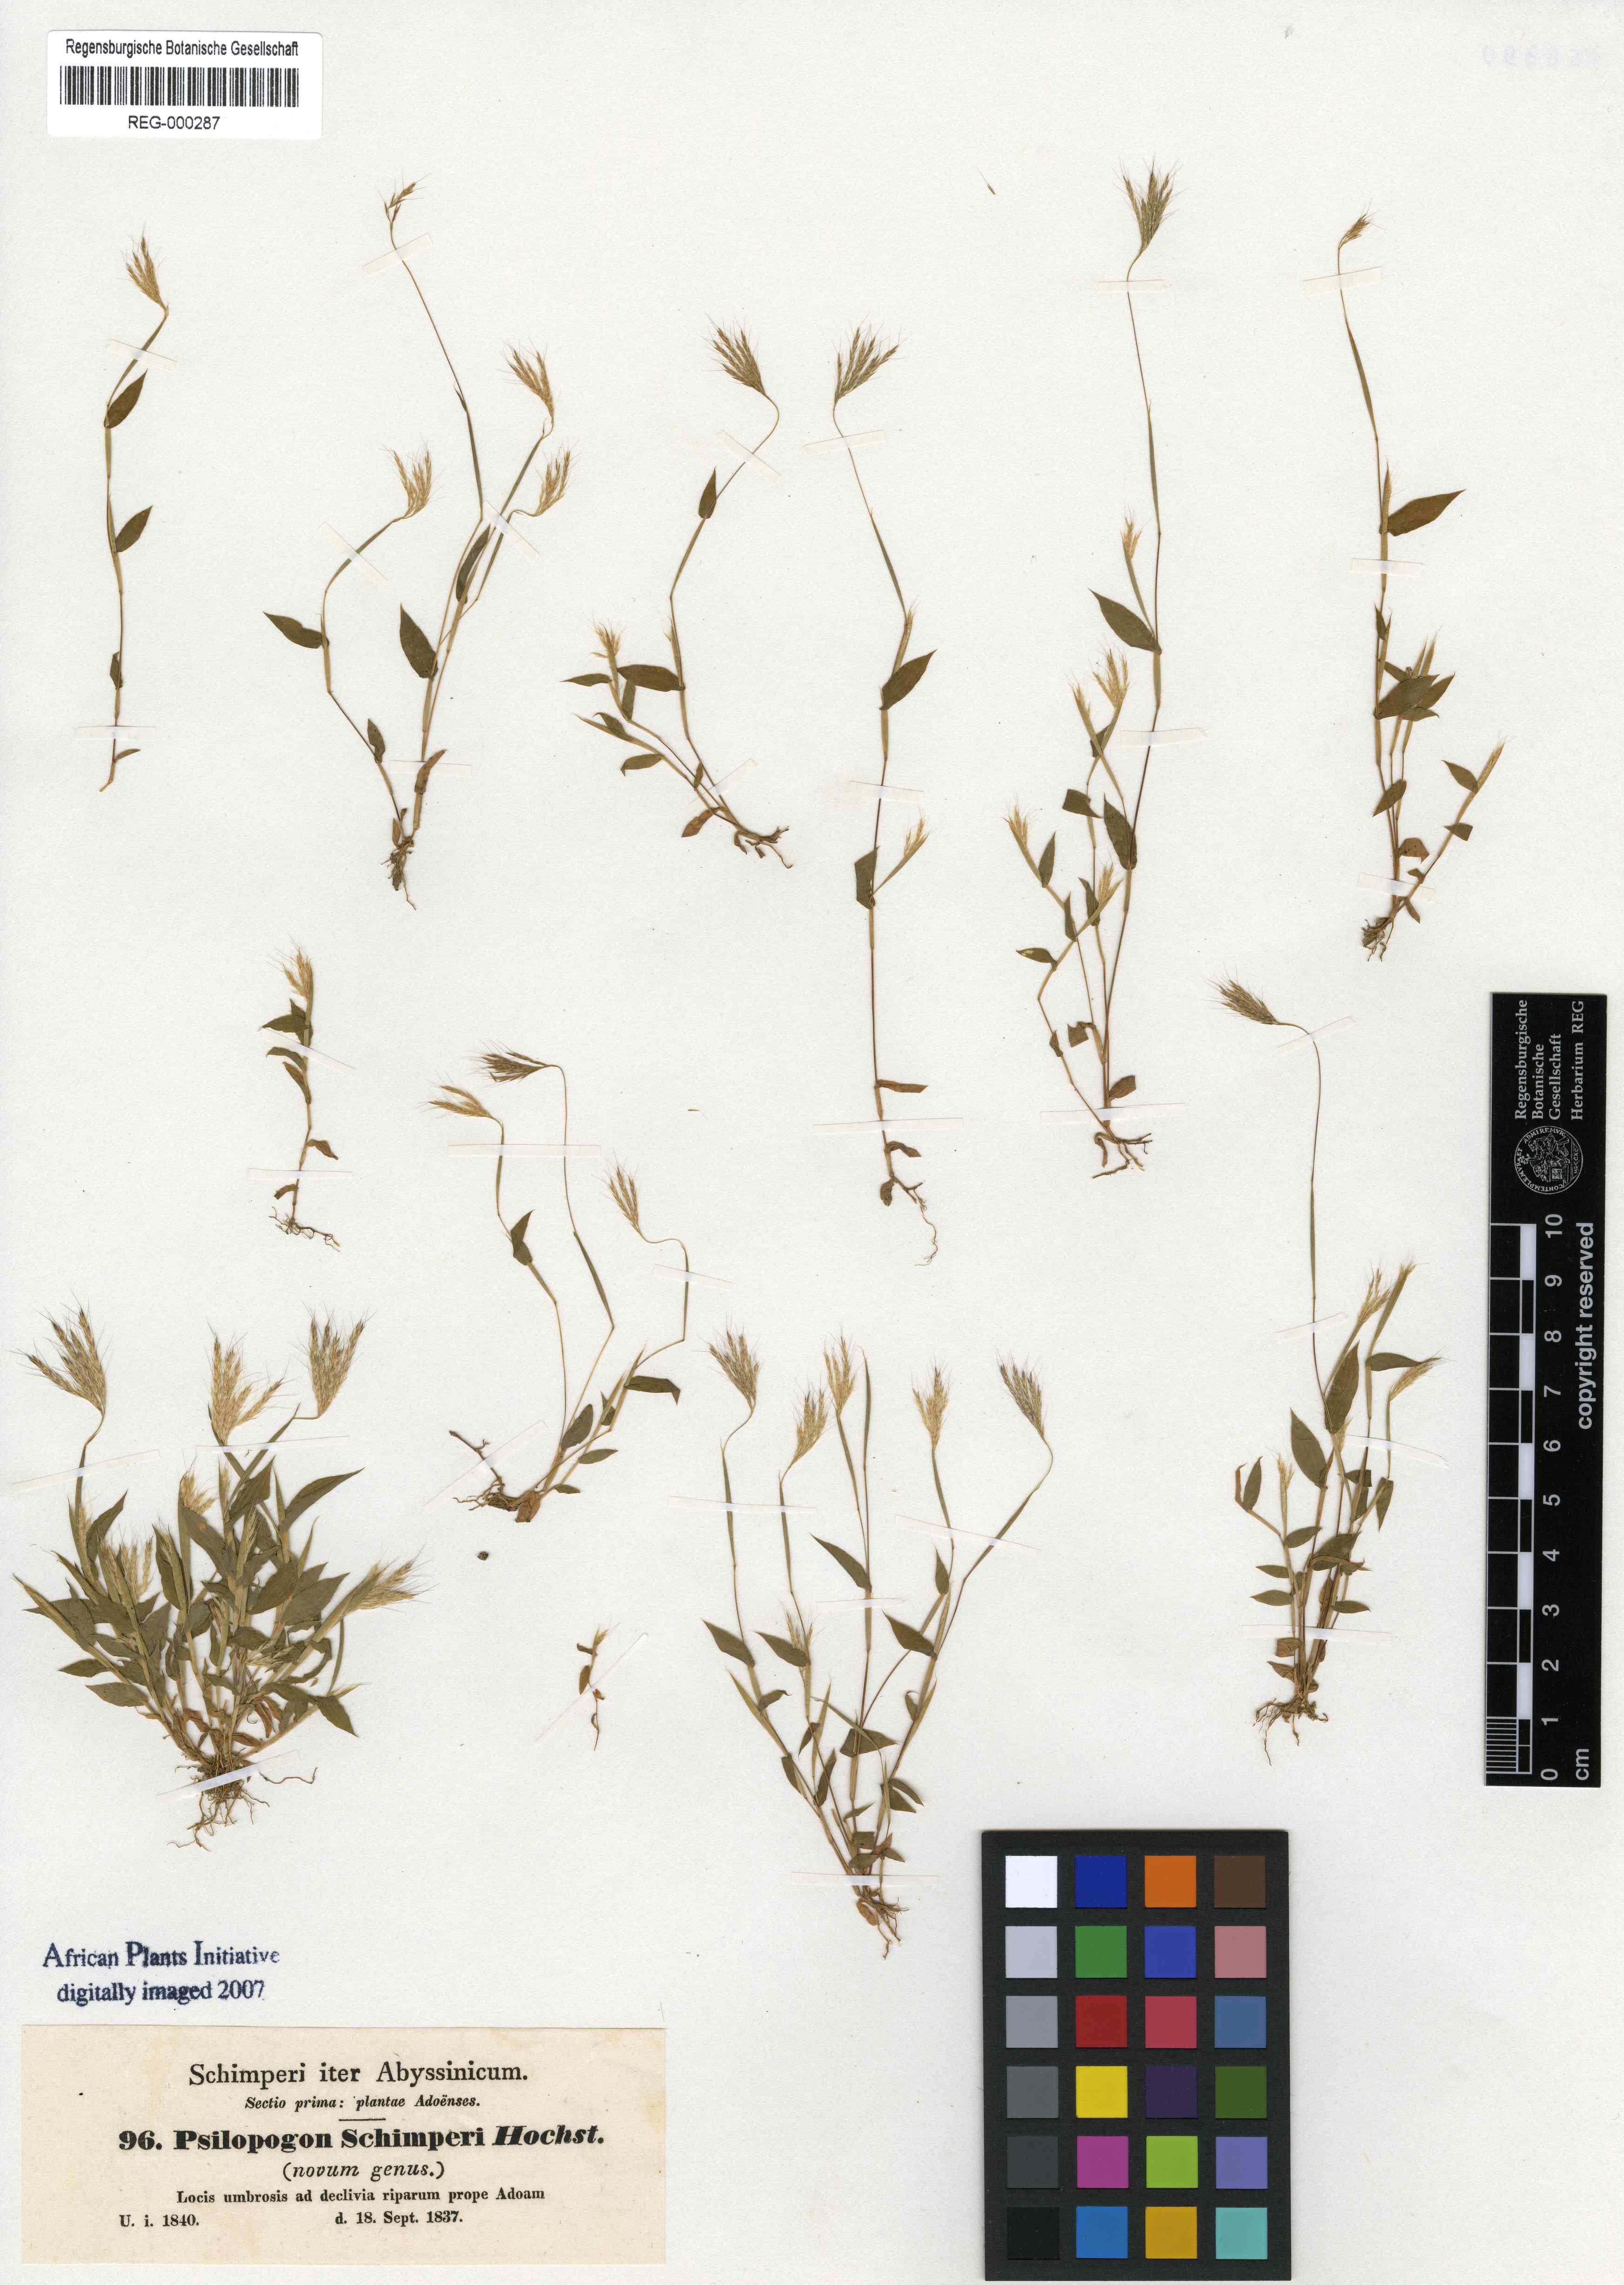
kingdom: Plantae
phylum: Tracheophyta
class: Liliopsida
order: Poales
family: Poaceae
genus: Arthraxon
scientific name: Arthraxon hispidus
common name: Small carpgrass
